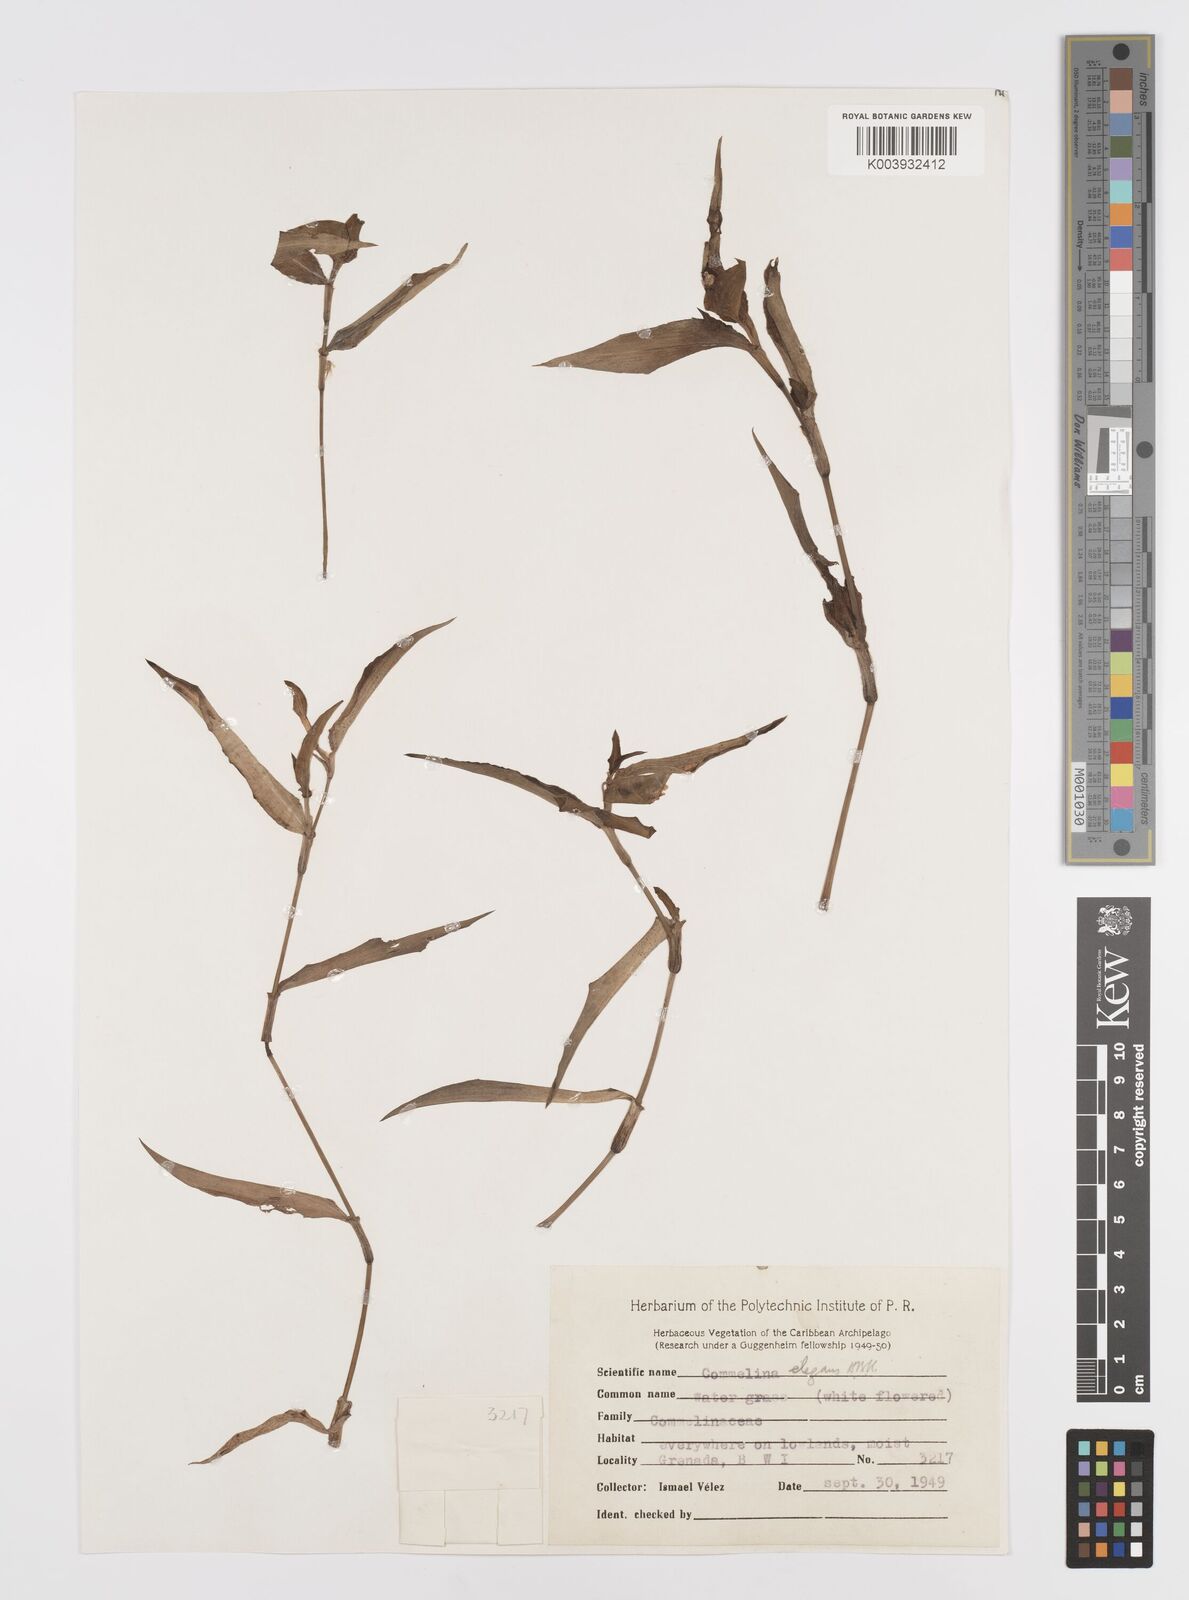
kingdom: Plantae
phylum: Tracheophyta
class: Liliopsida
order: Commelinales
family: Commelinaceae
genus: Commelina
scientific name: Commelina erecta
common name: Blousel blommetjie
